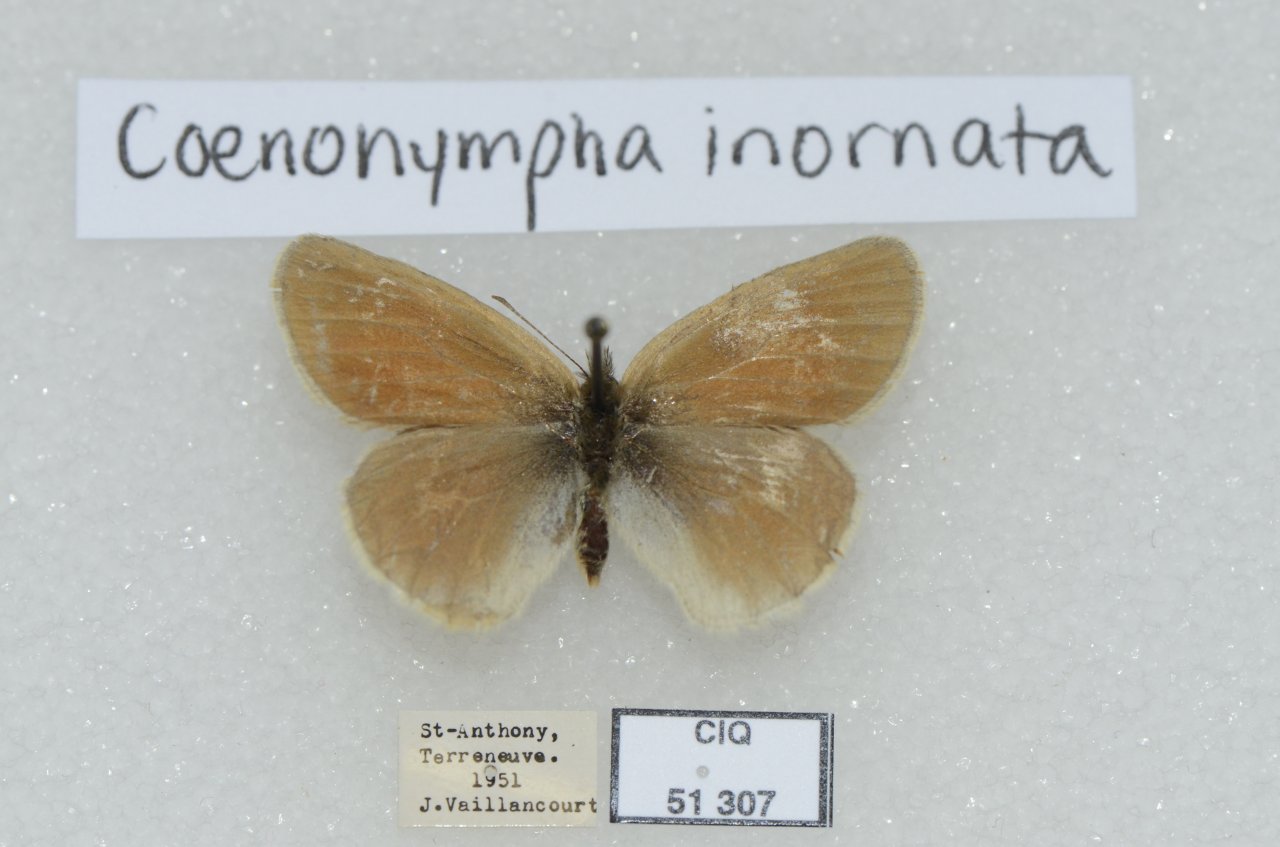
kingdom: Animalia
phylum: Arthropoda
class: Insecta
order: Lepidoptera
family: Nymphalidae
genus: Coenonympha
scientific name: Coenonympha tullia
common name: Large Heath
